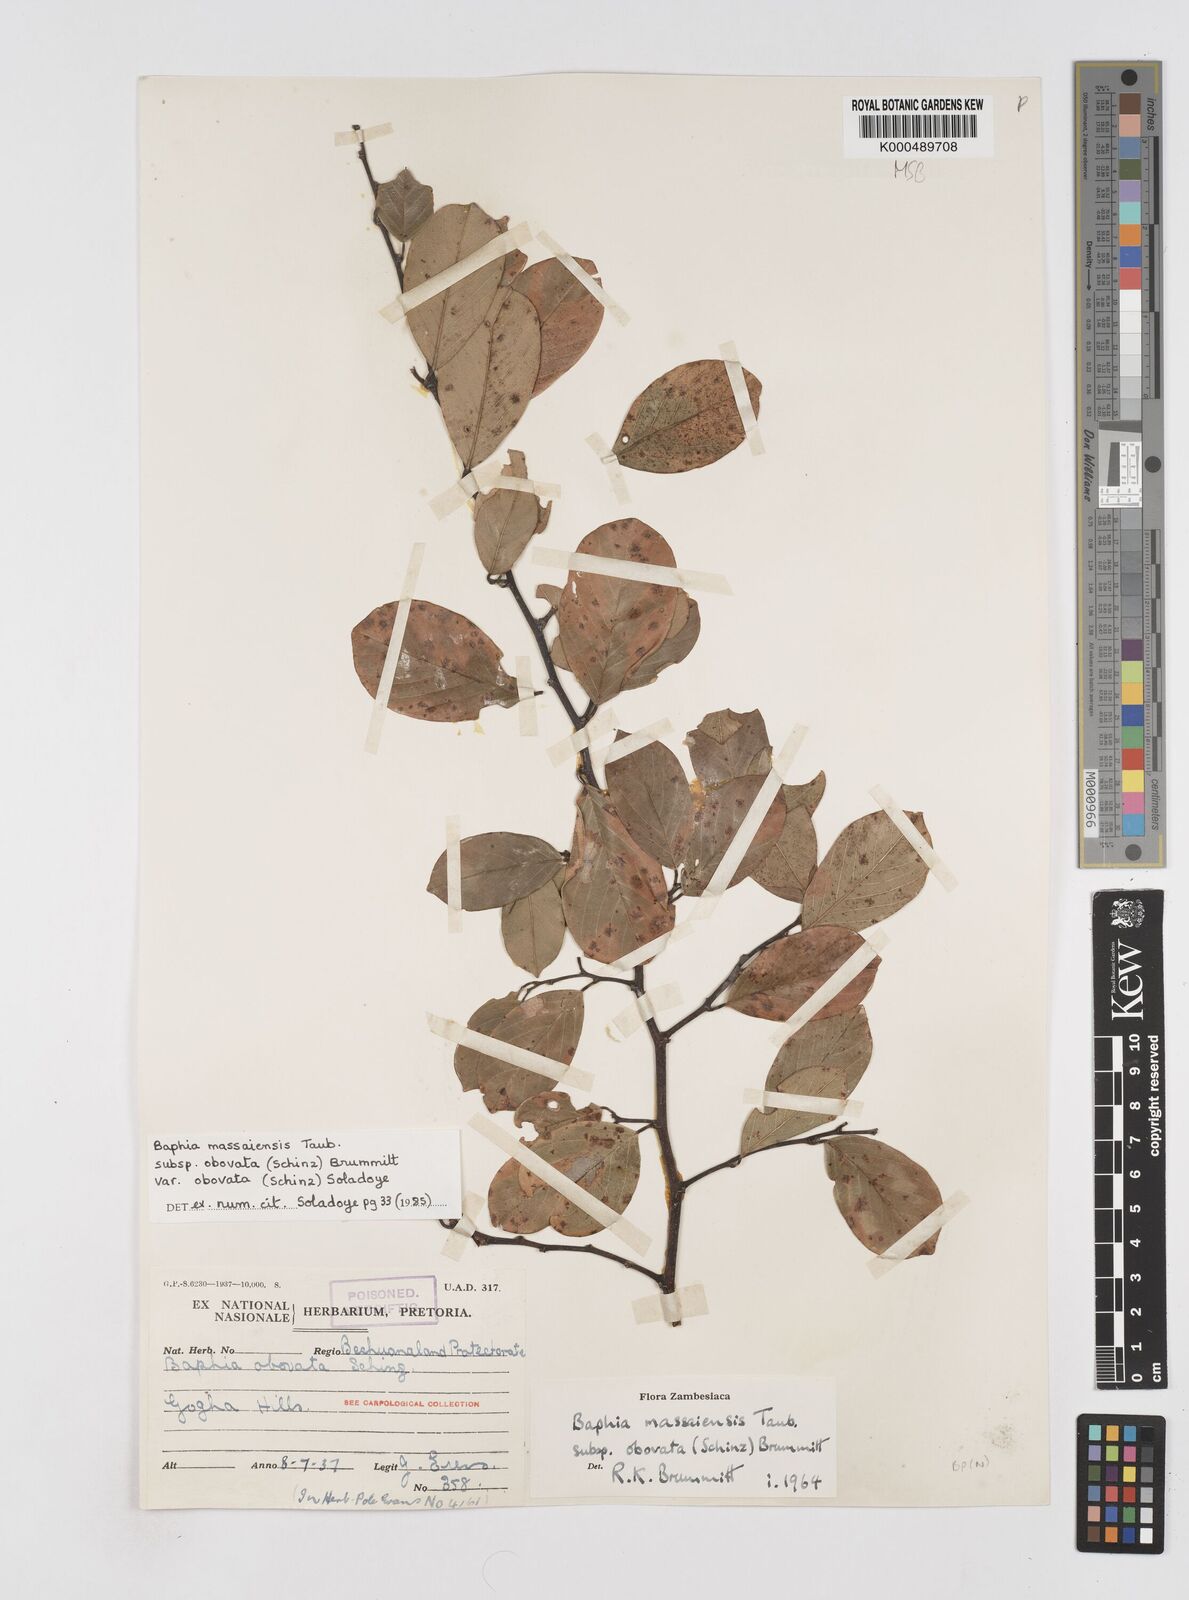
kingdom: Plantae
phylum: Tracheophyta
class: Magnoliopsida
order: Fabales
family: Fabaceae
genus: Baphia
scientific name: Baphia massaiensis
